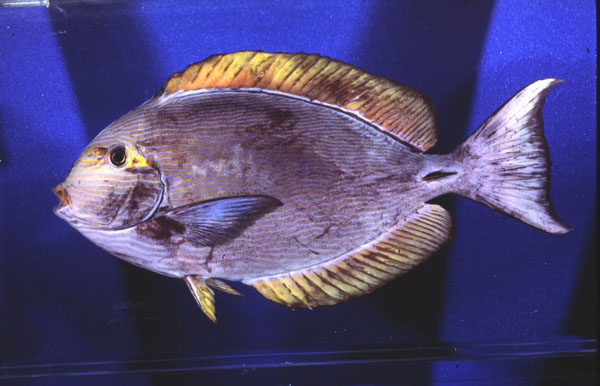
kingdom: Animalia
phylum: Chordata
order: Perciformes
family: Acanthuridae
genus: Acanthurus
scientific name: Acanthurus mata
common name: Bleeker's surgeonfish
